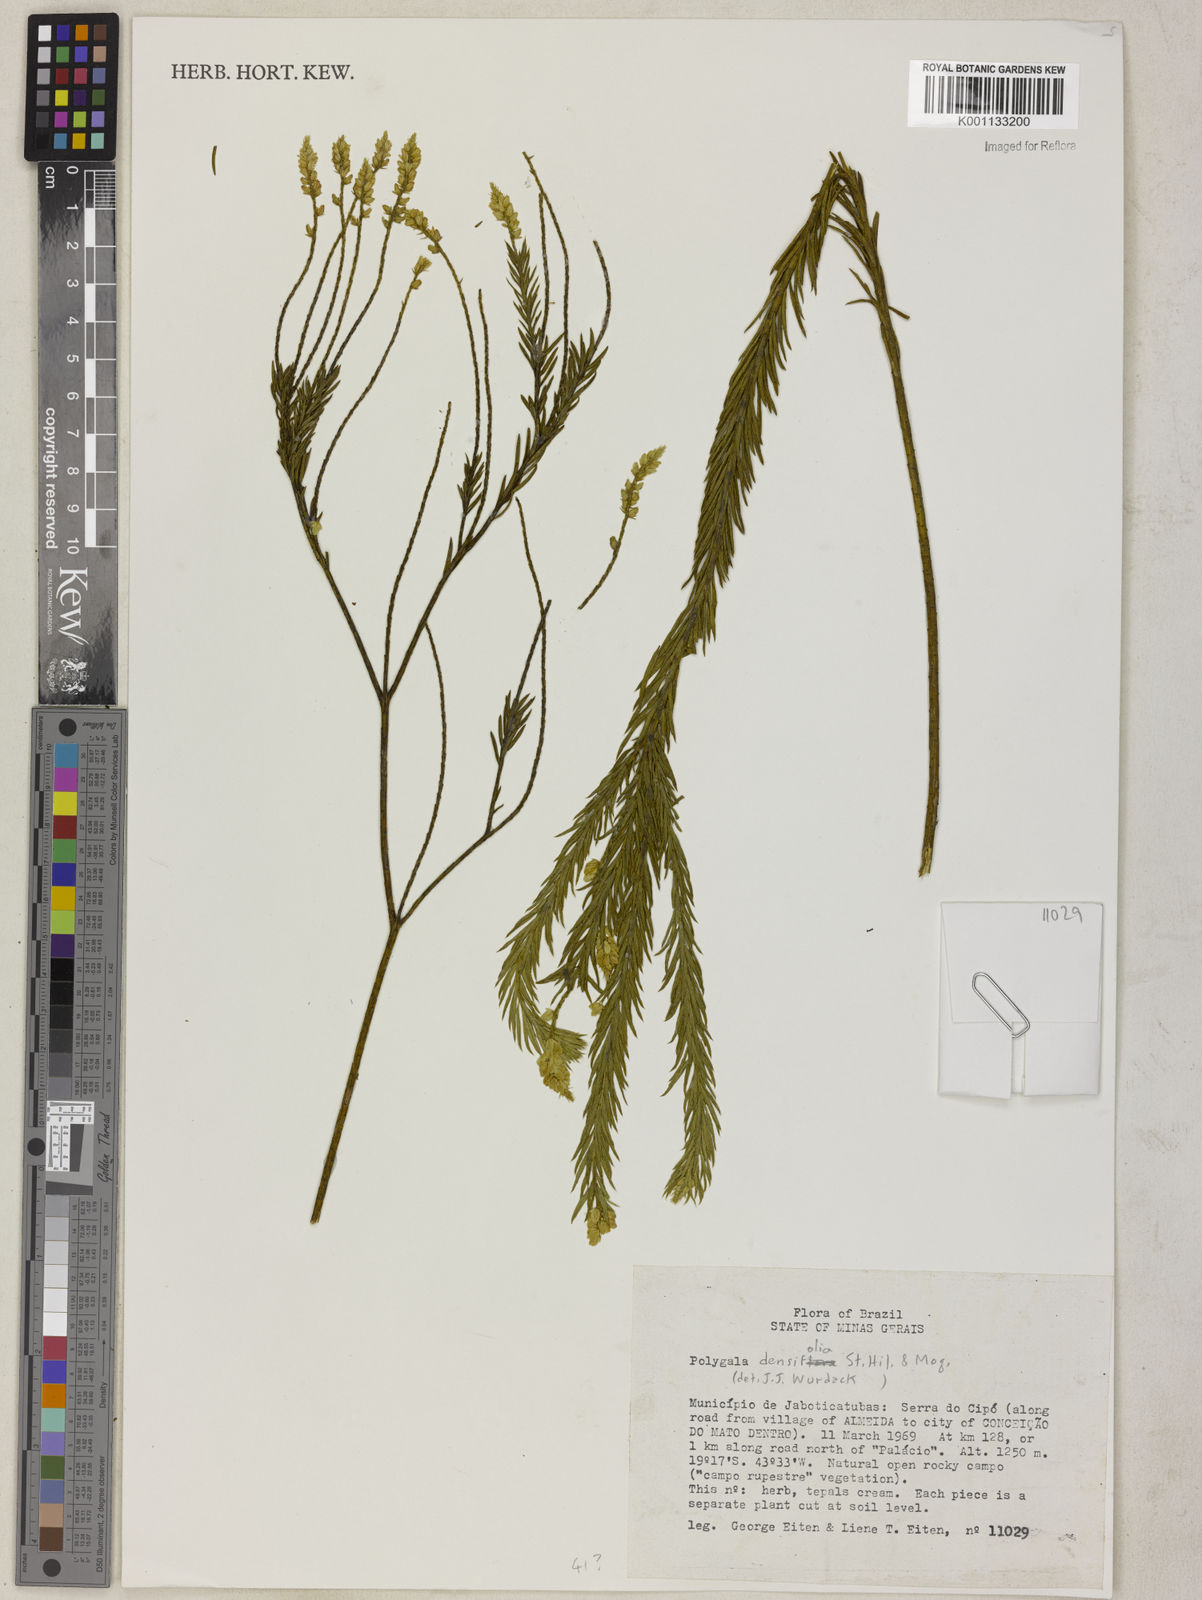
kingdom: Plantae
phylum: Tracheophyta
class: Magnoliopsida
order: Fabales
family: Polygalaceae
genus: Polygala
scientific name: Polygala densifolia
